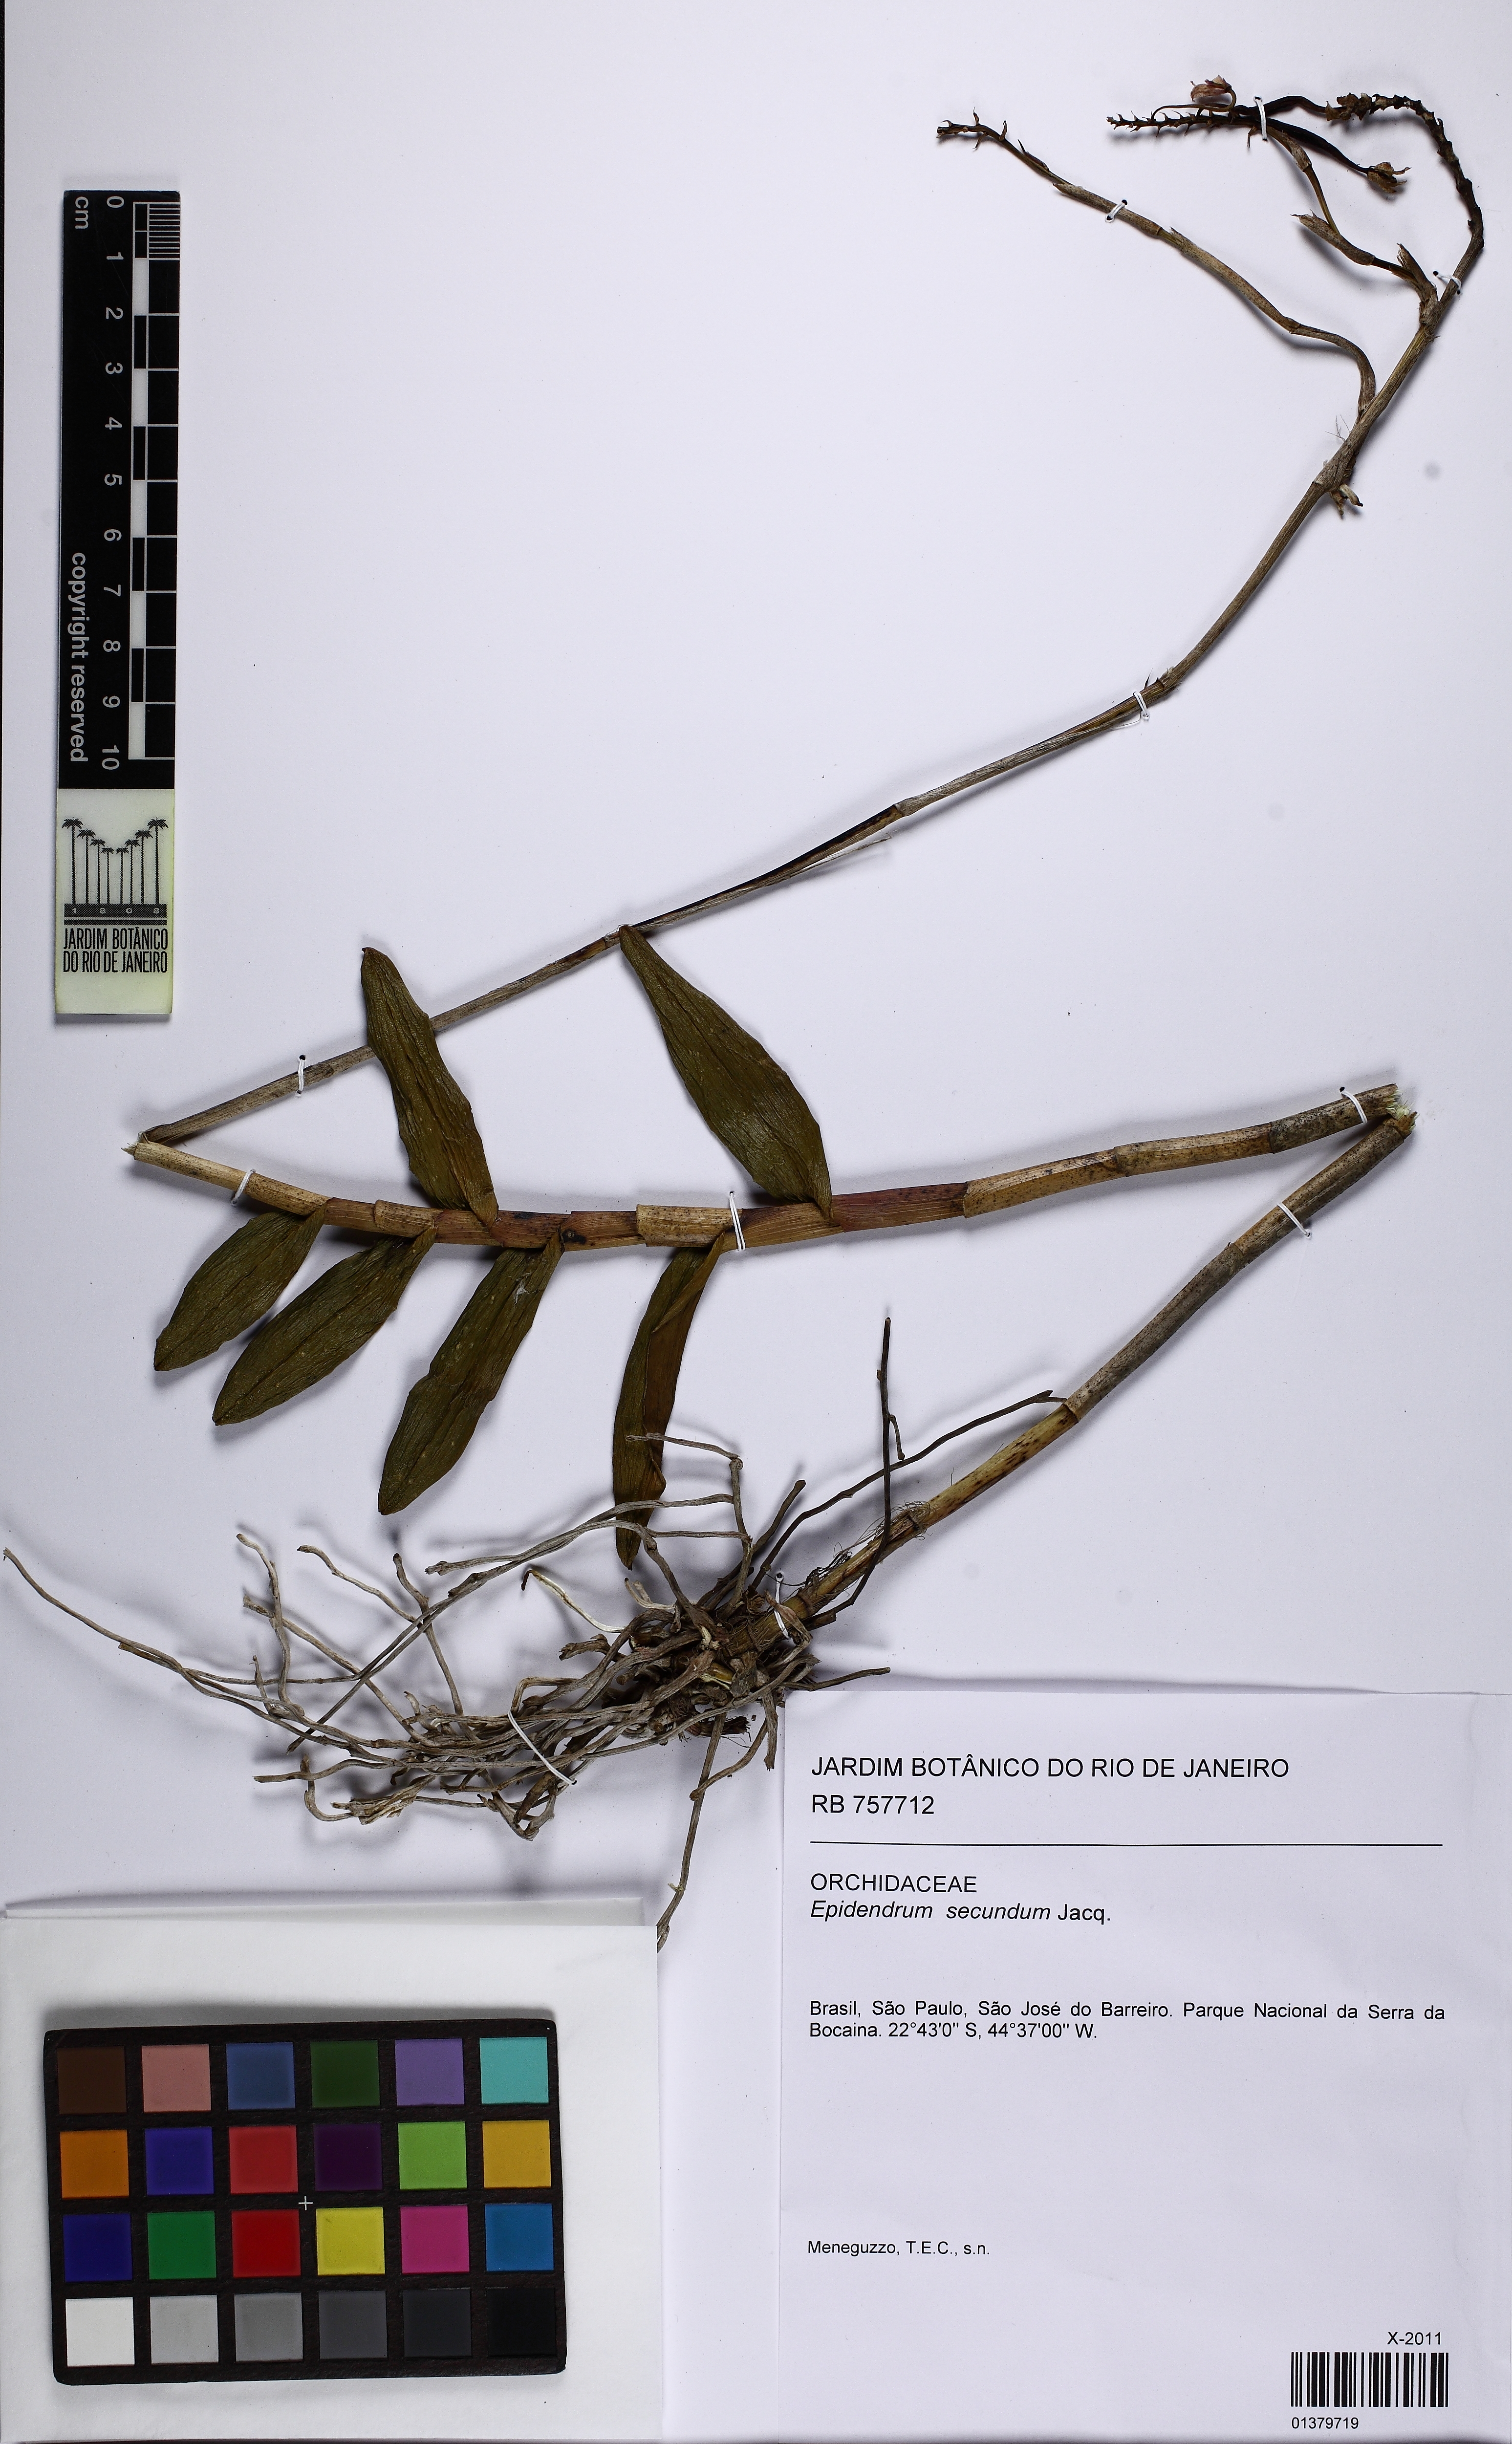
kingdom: Plantae
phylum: Tracheophyta
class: Liliopsida
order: Asparagales
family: Orchidaceae
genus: Epidendrum
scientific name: Epidendrum secundum
